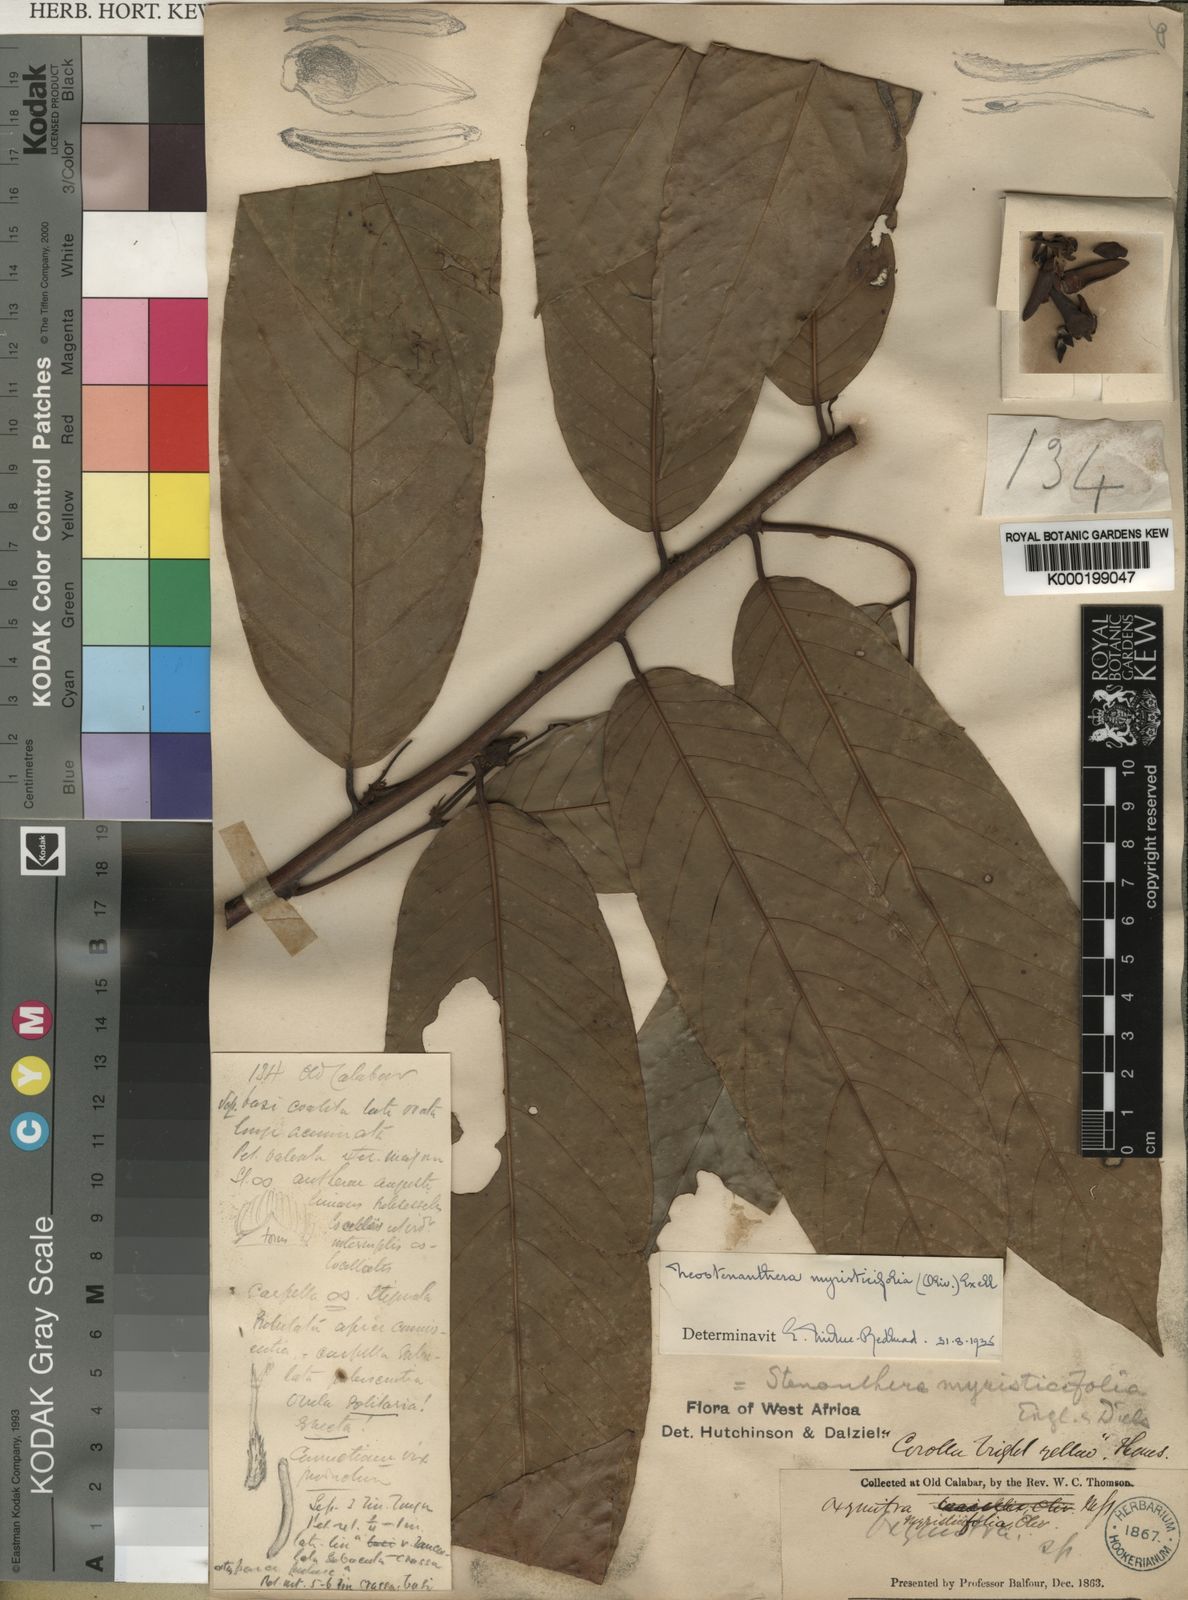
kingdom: Plantae
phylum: Tracheophyta
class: Magnoliopsida
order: Magnoliales
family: Annonaceae
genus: Neostenanthera
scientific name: Neostenanthera myristicifolia
